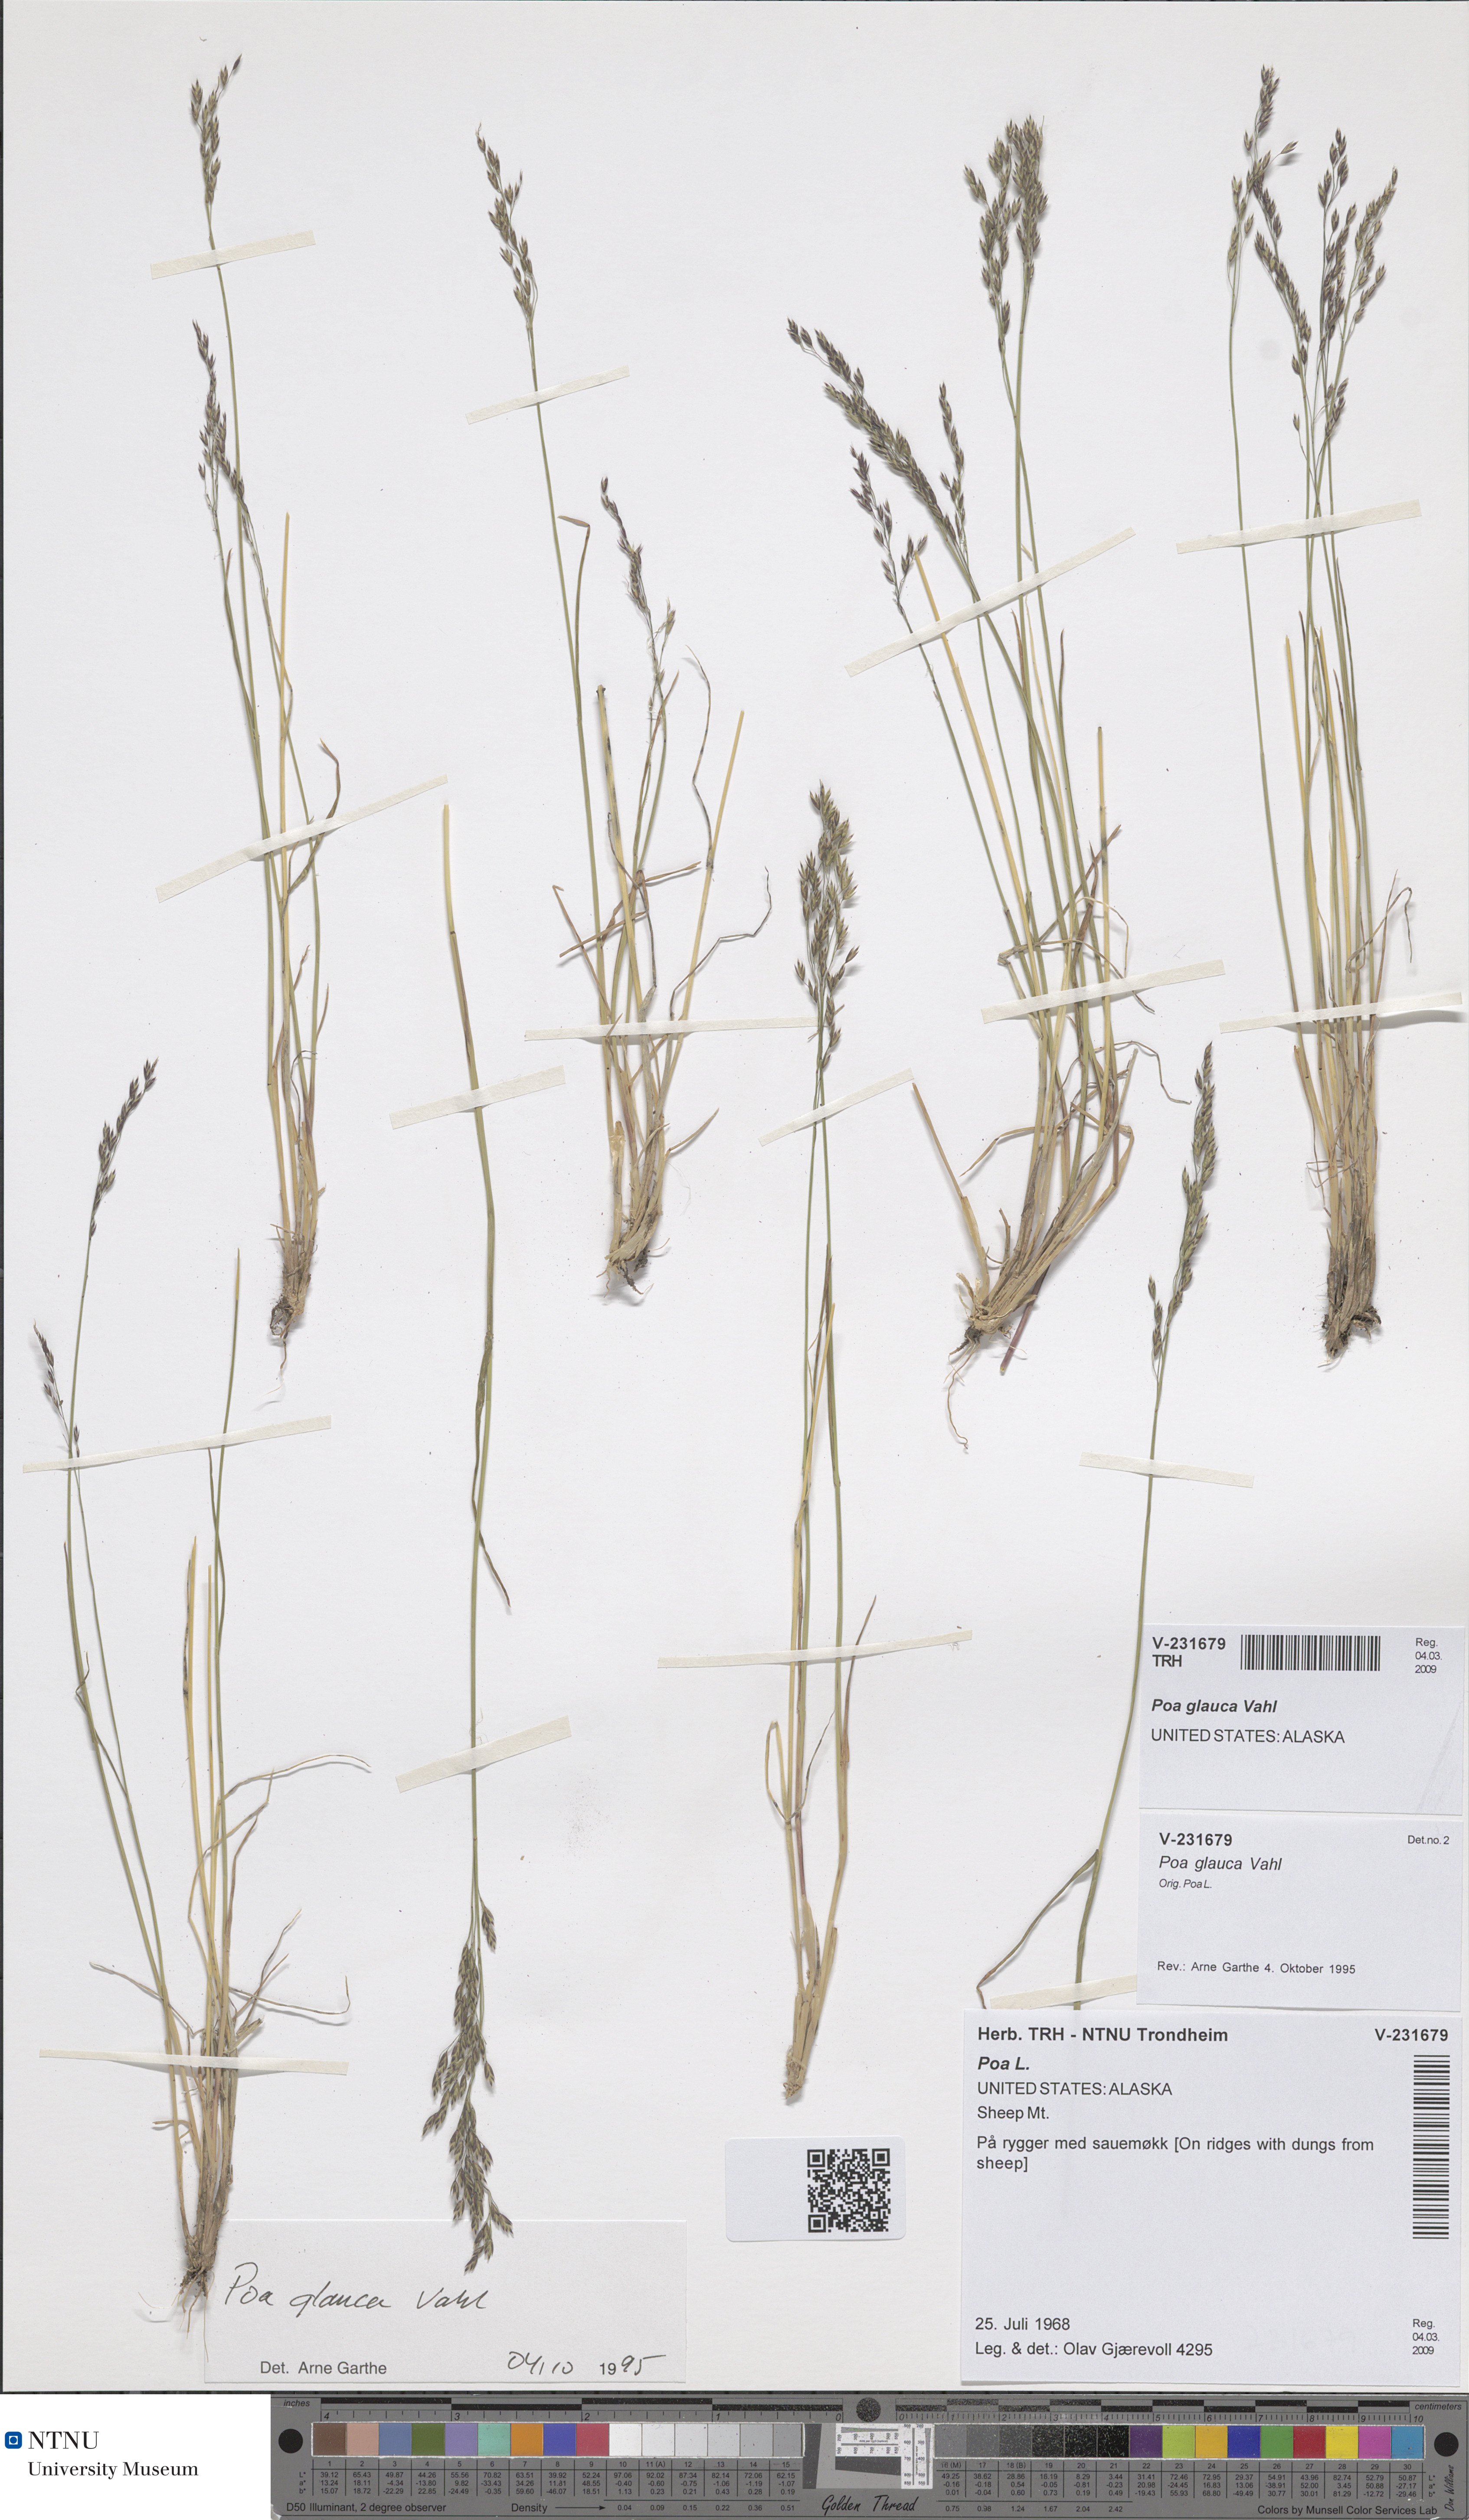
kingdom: Plantae
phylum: Tracheophyta
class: Liliopsida
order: Poales
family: Poaceae
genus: Poa
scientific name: Poa glauca
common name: Glaucous bluegrass
